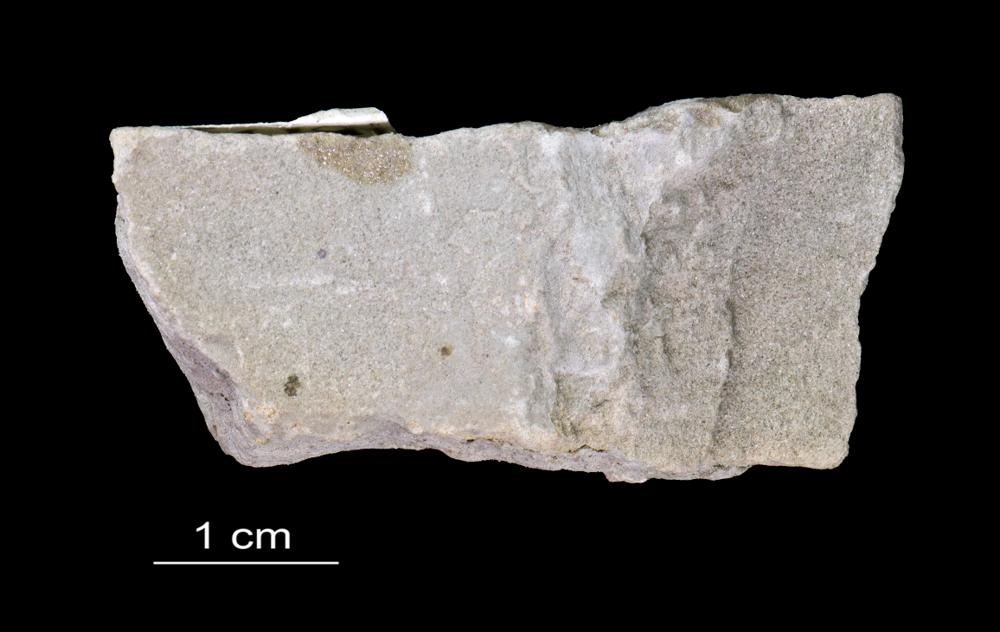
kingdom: Animalia
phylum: Arthropoda
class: Trilobita
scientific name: Trilobita
